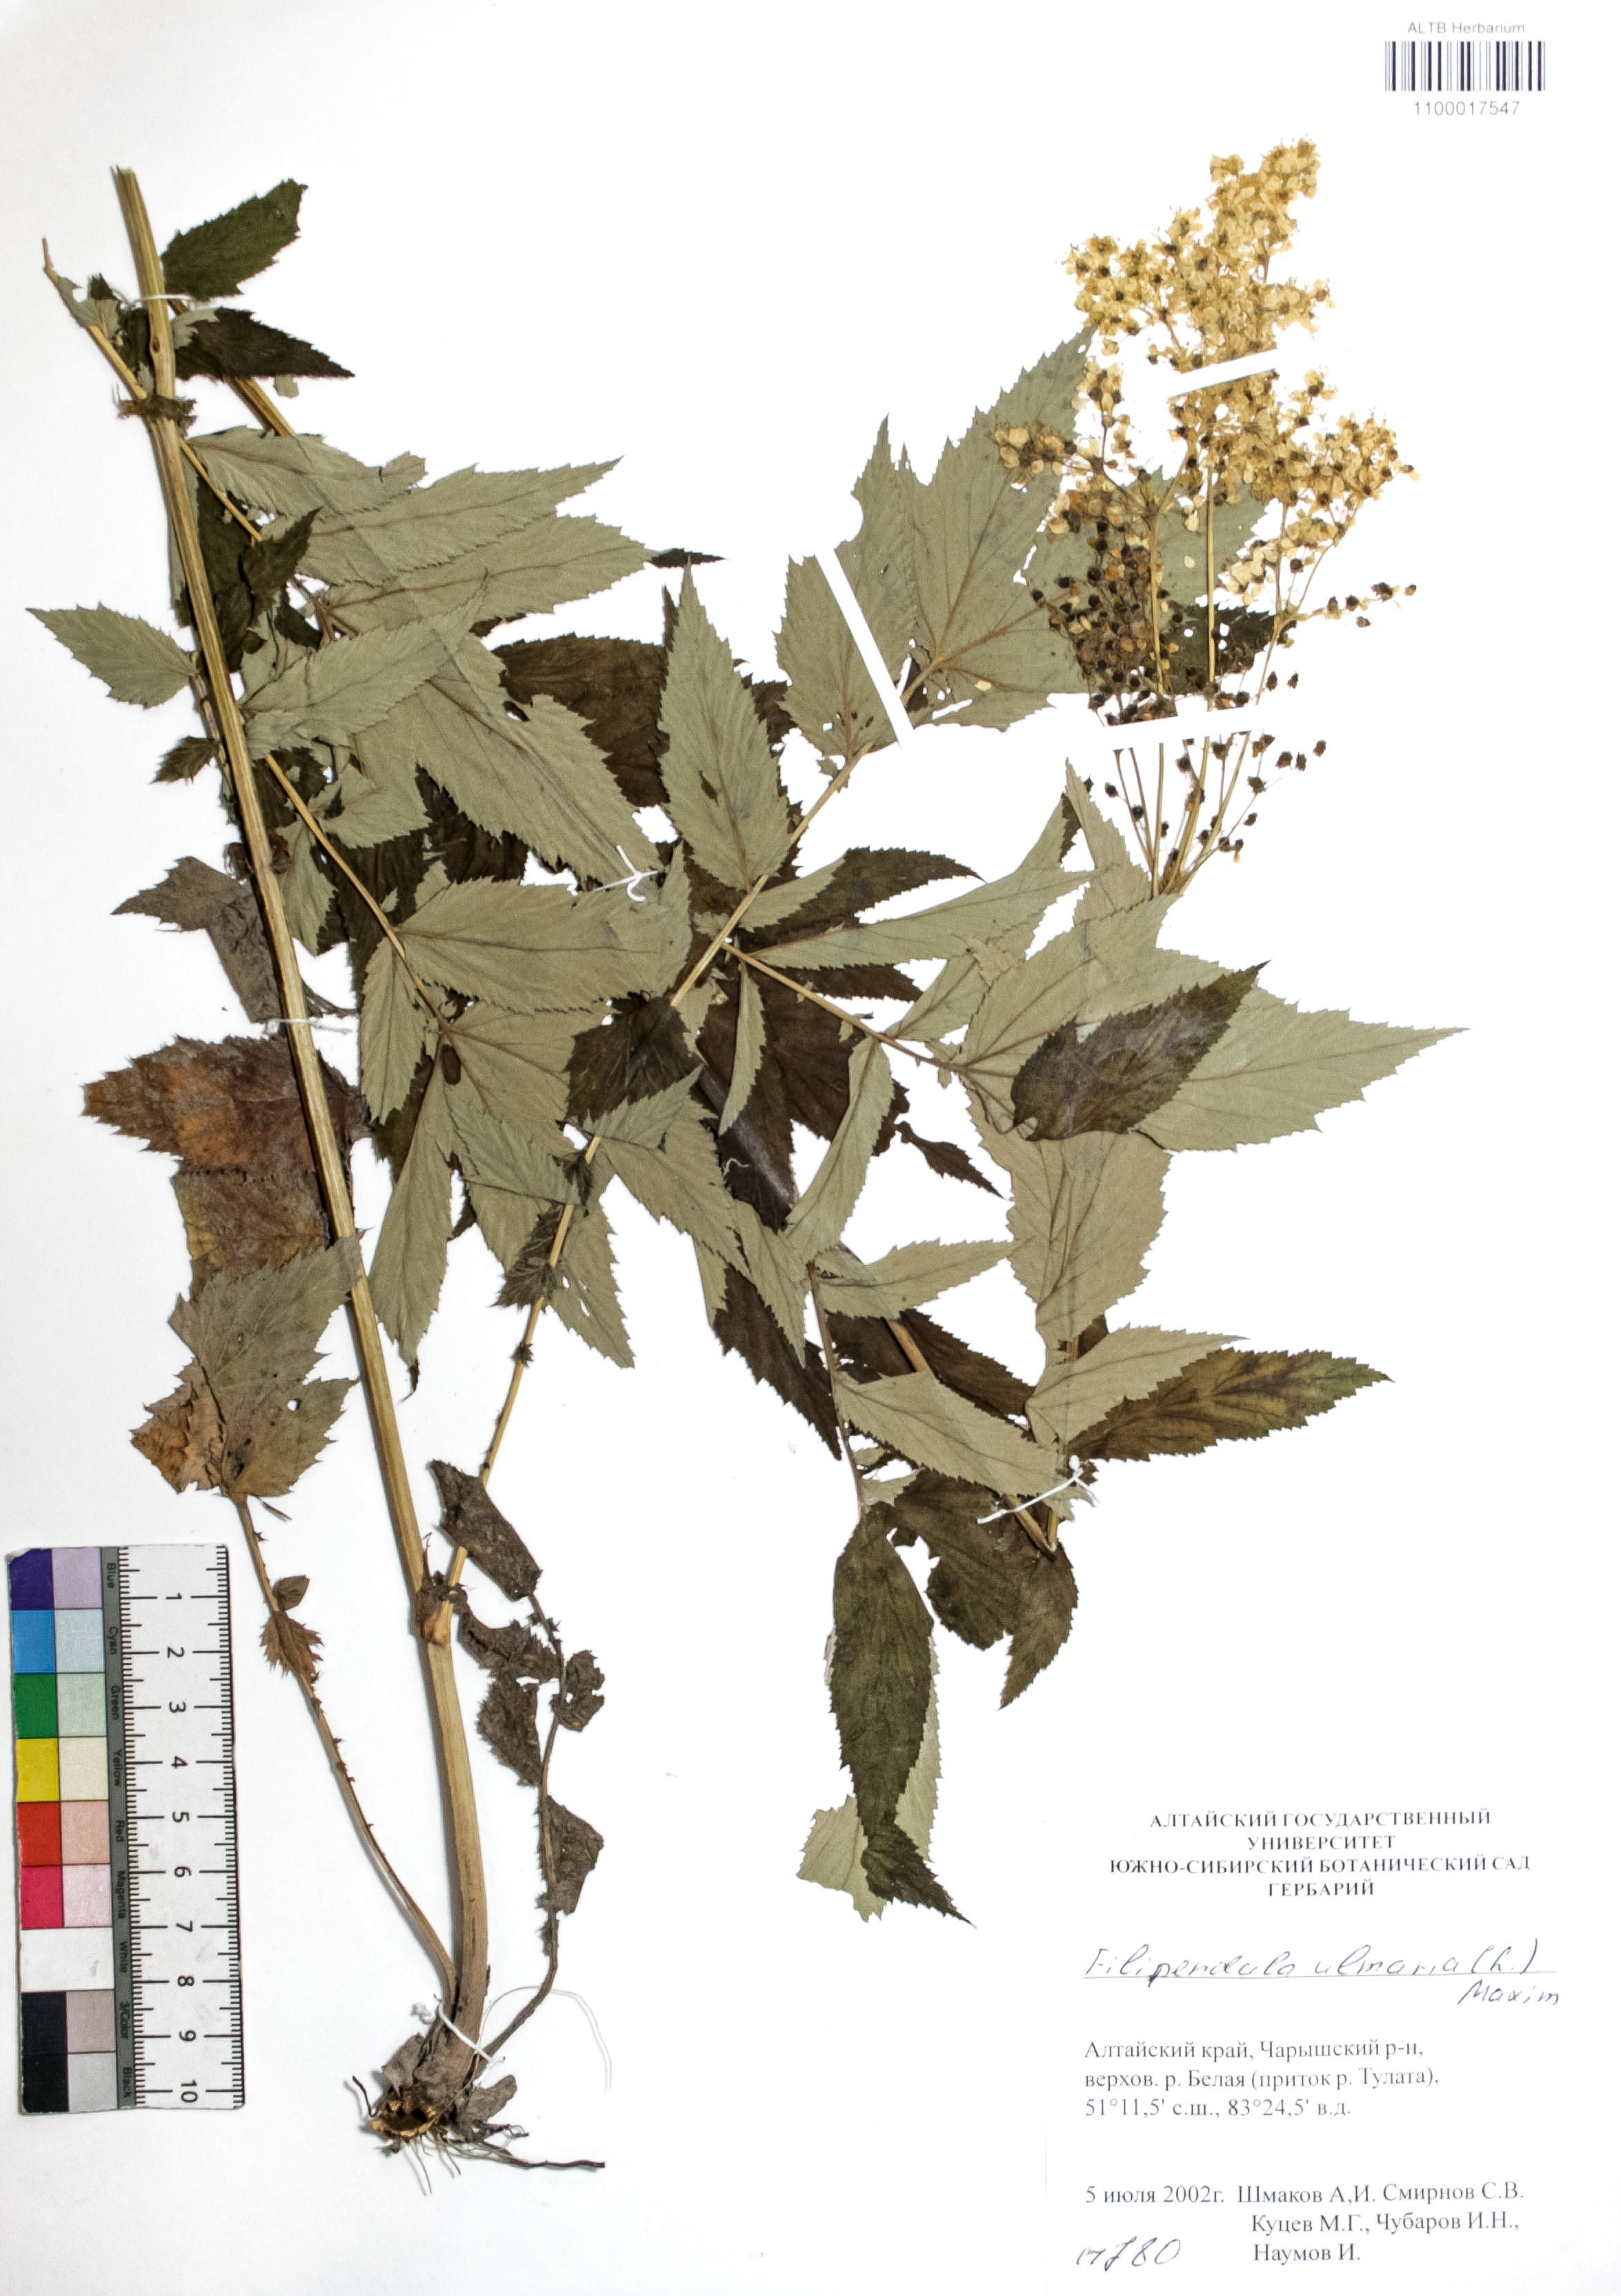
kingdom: Plantae
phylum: Tracheophyta
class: Magnoliopsida
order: Rosales
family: Rosaceae
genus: Filipendula
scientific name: Filipendula ulmaria
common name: Meadowsweet
